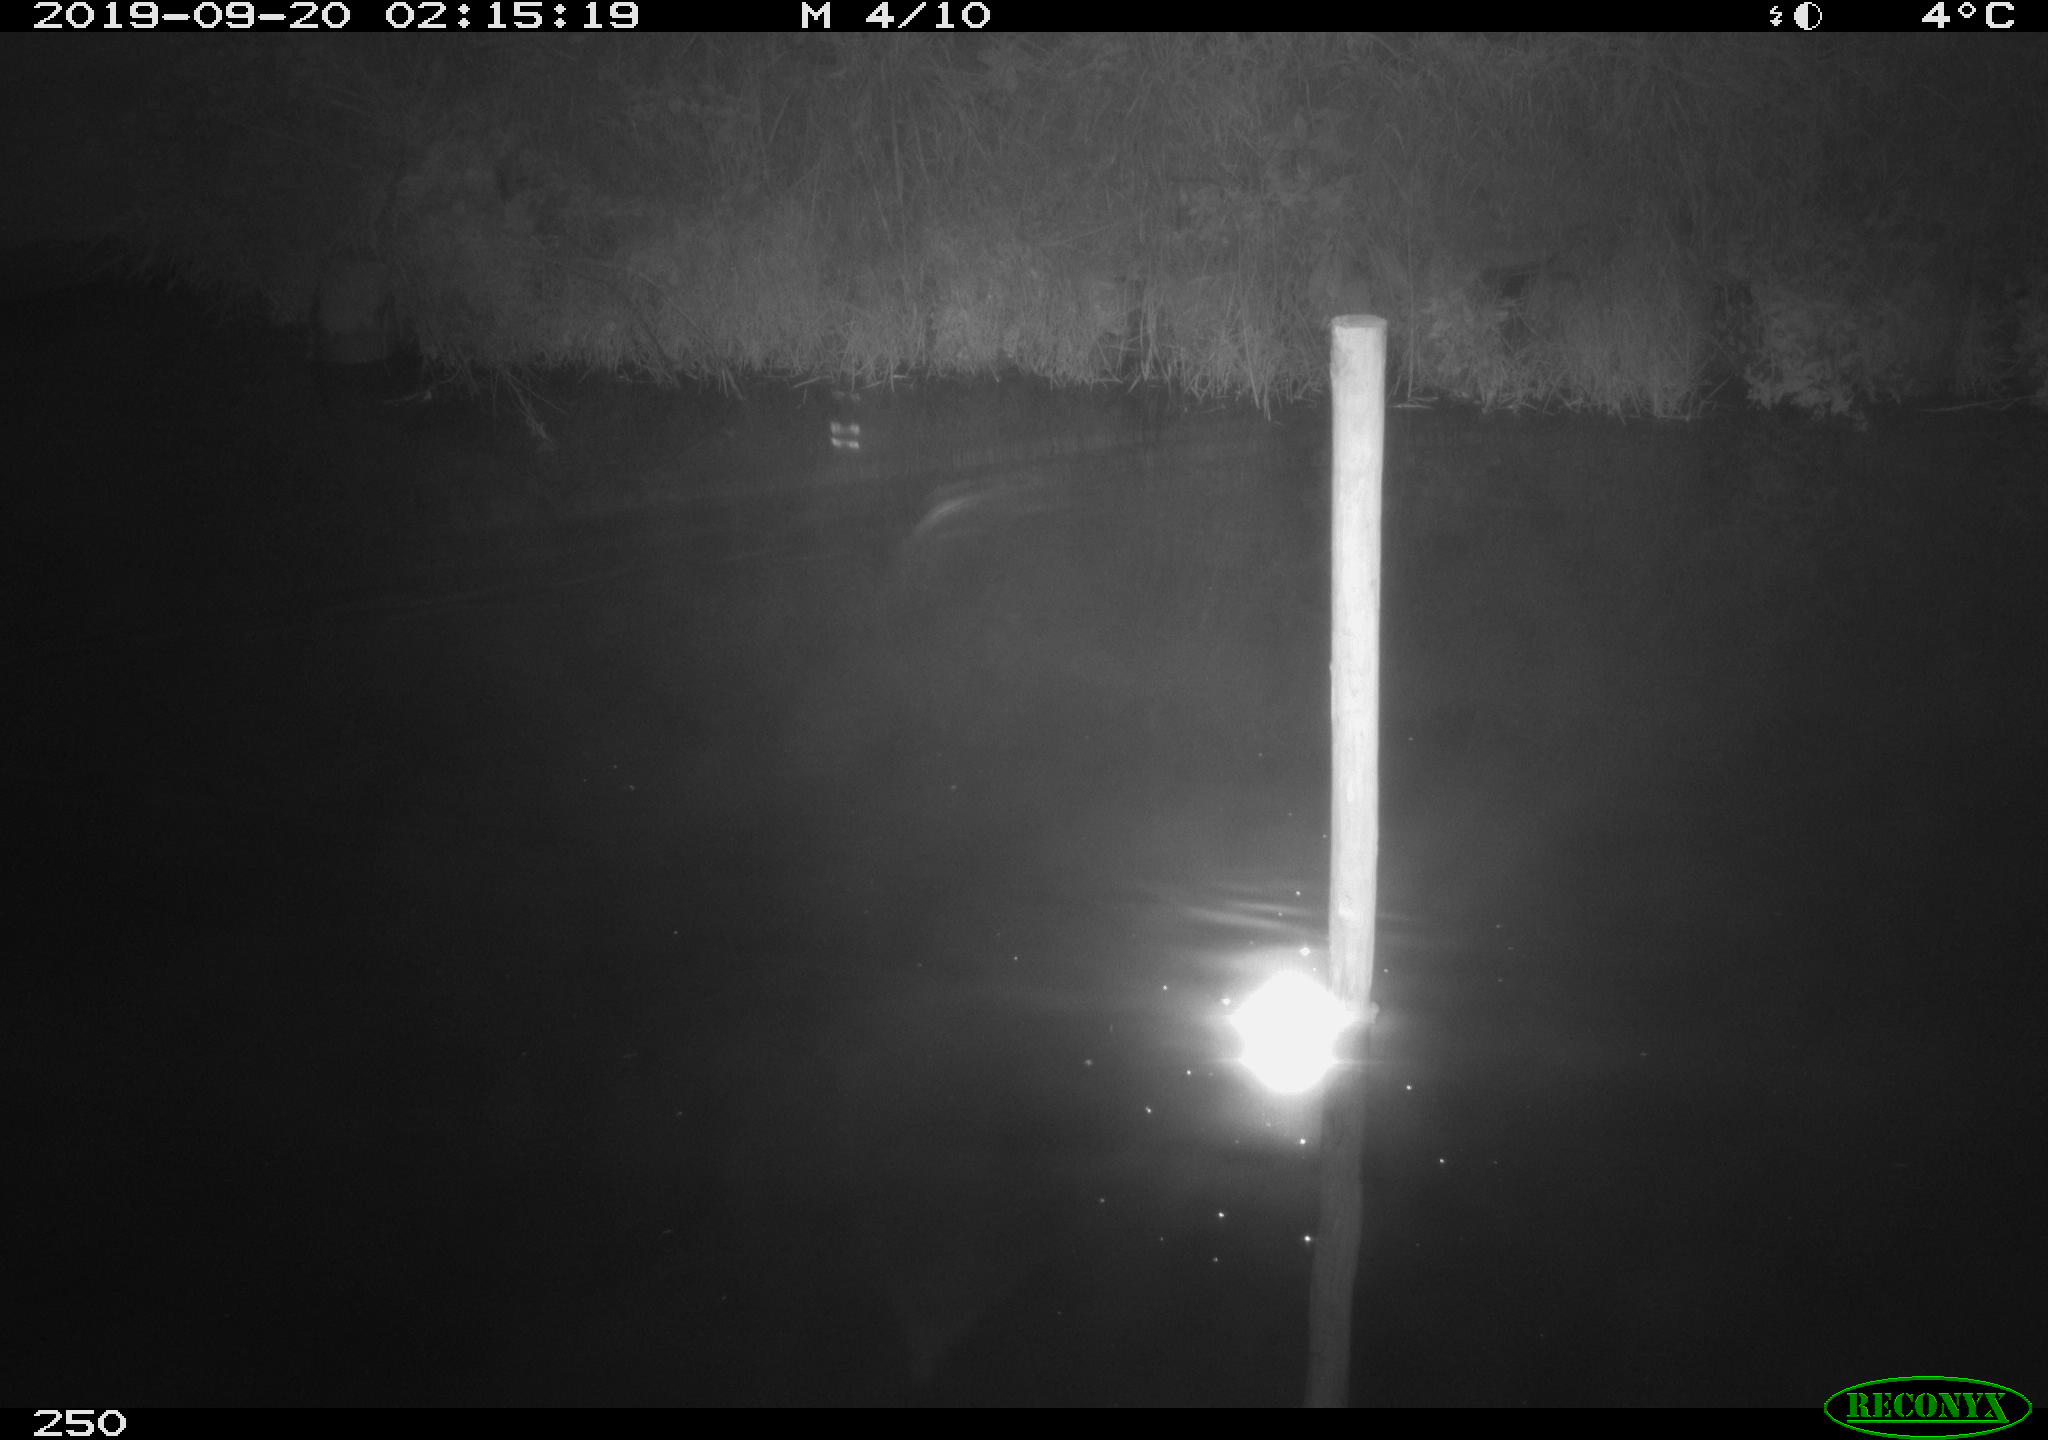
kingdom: Animalia
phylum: Chordata
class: Aves
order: Anseriformes
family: Anatidae
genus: Anas
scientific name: Anas platyrhynchos
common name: Mallard
